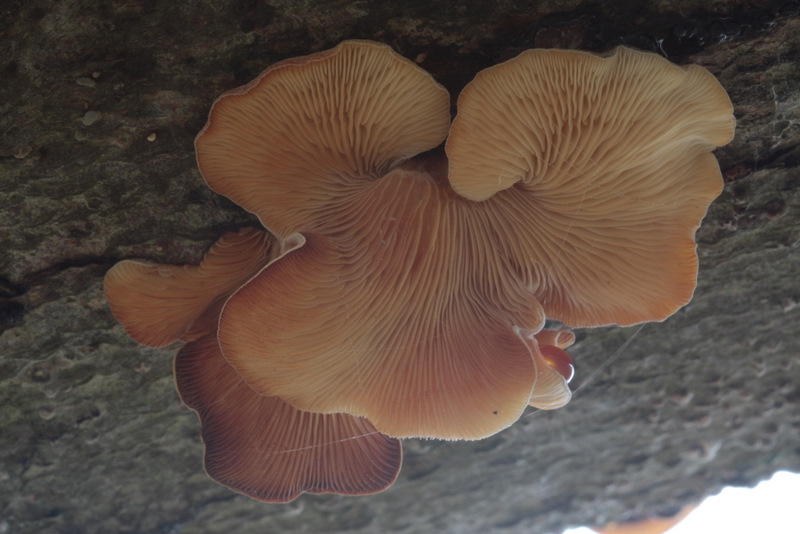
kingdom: Fungi
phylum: Basidiomycota
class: Agaricomycetes
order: Agaricales
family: Pleurotaceae
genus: Hohenbuehelia
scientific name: Hohenbuehelia mastrucata
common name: skællet filthat
